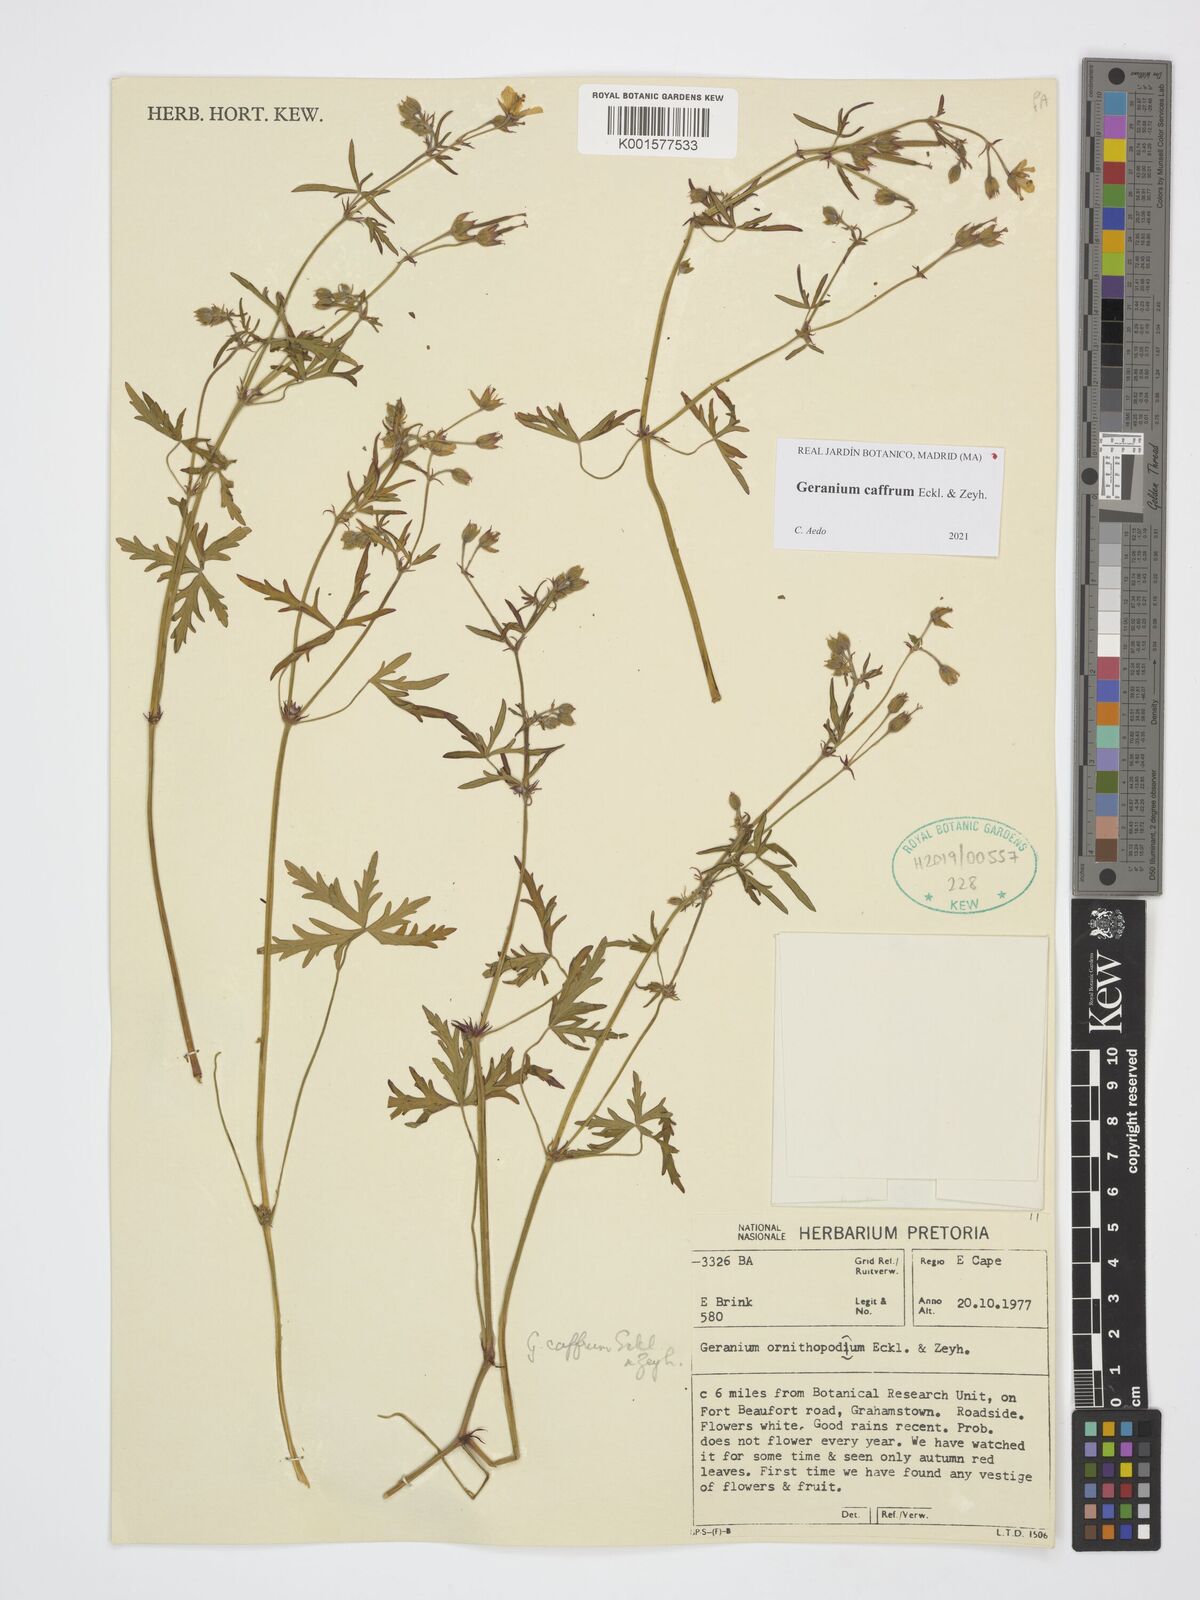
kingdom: Plantae
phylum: Tracheophyta
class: Magnoliopsida
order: Geraniales
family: Geraniaceae
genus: Geranium
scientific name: Geranium caffrum
